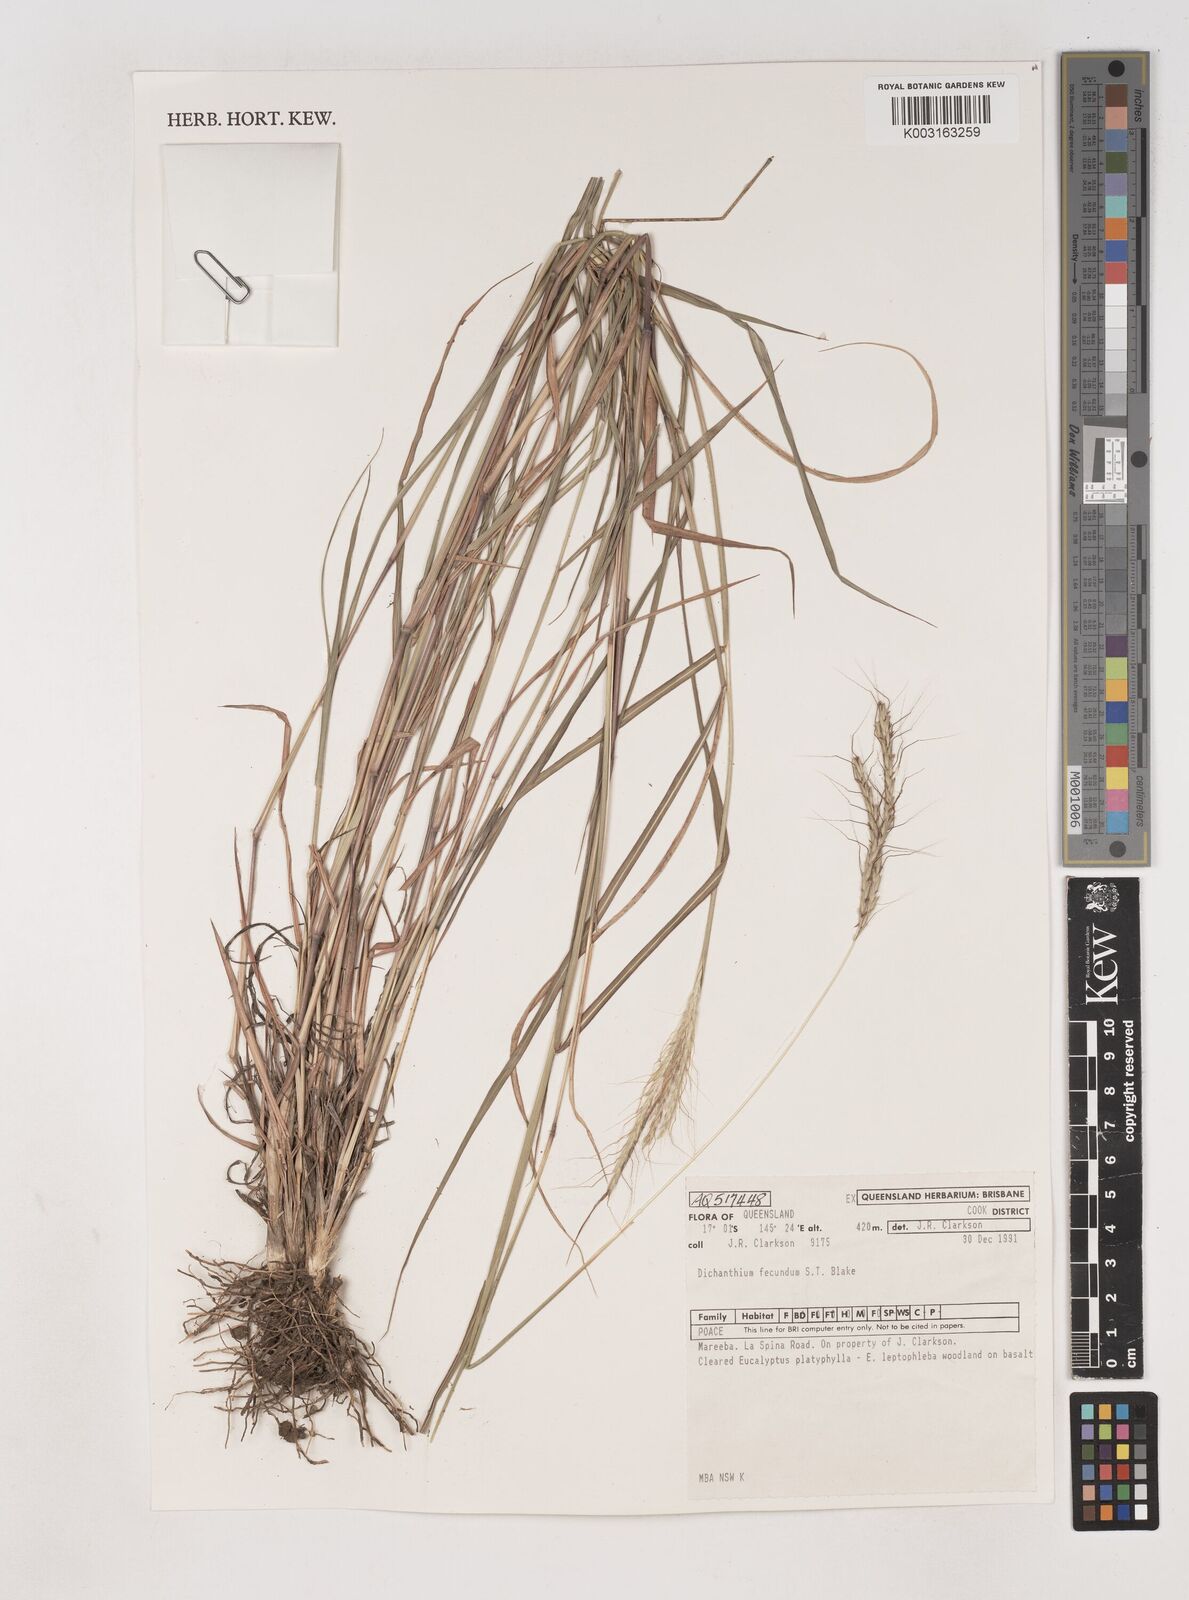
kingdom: Plantae
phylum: Tracheophyta
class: Liliopsida
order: Poales
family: Poaceae
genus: Dichanthium
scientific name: Dichanthium fecundum
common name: Bundle-bundle
